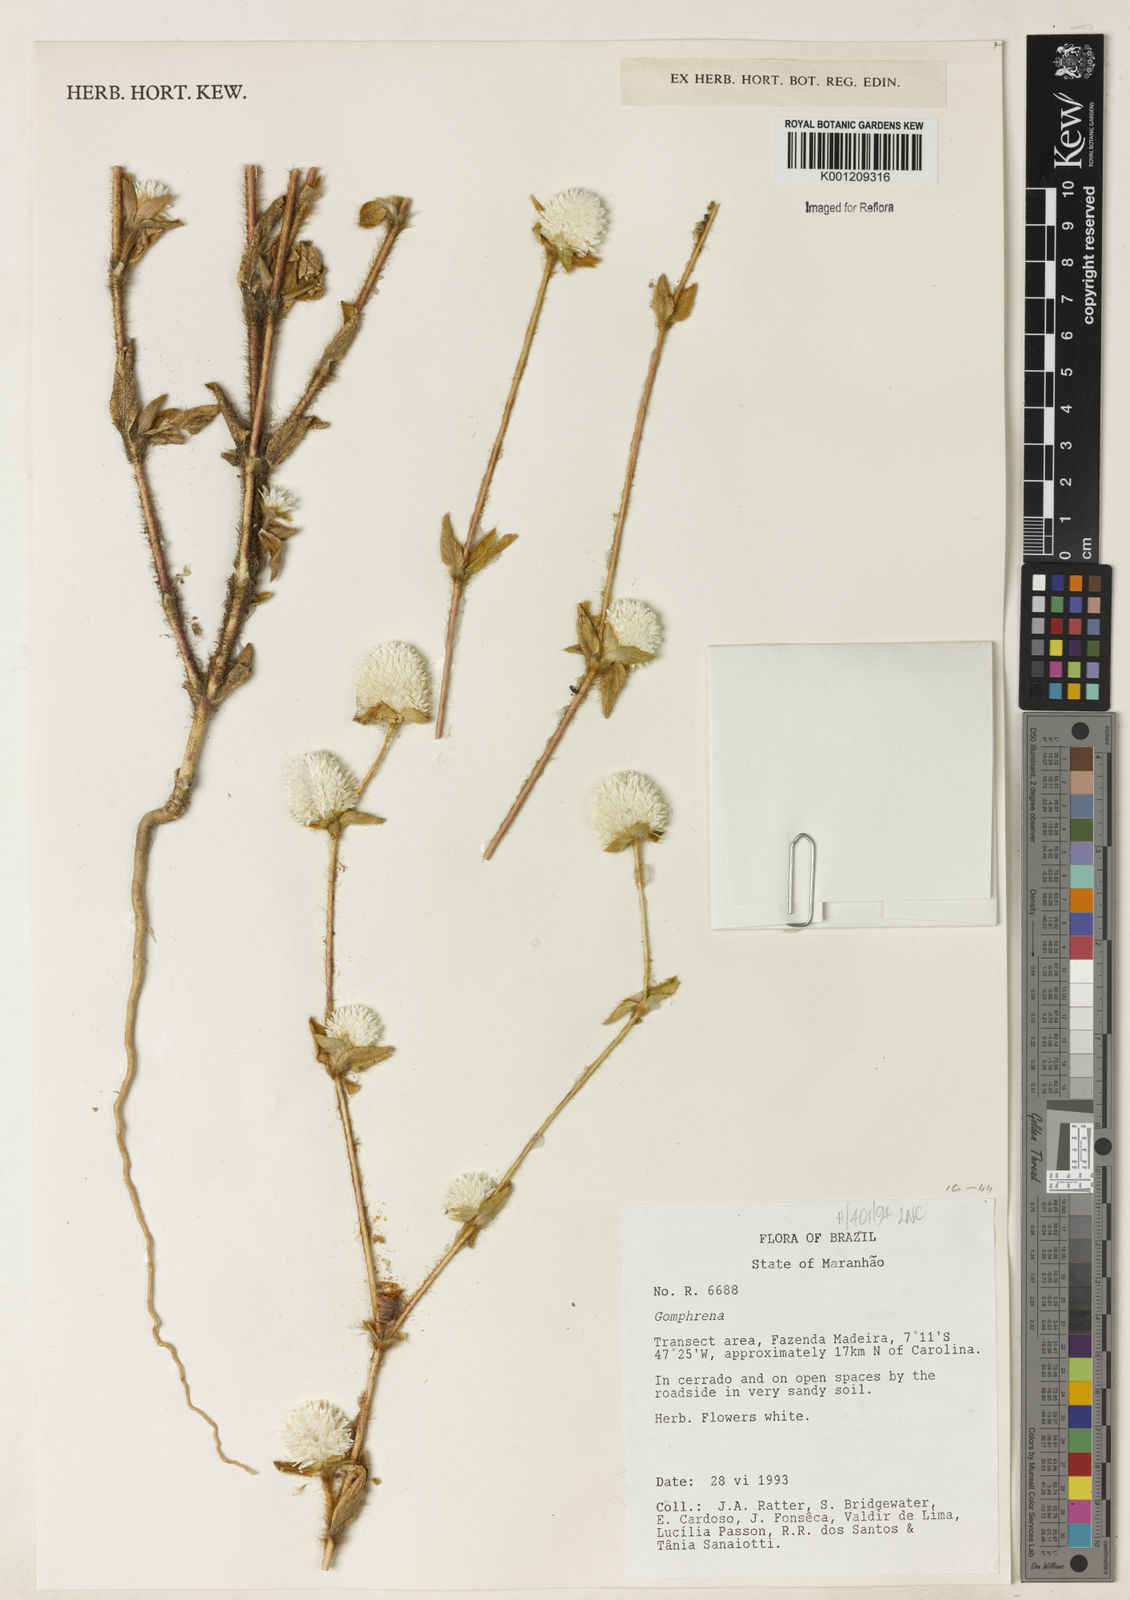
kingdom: Plantae
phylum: Tracheophyta
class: Magnoliopsida
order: Caryophyllales
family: Amaranthaceae
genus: Gomphrena
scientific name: Gomphrena
